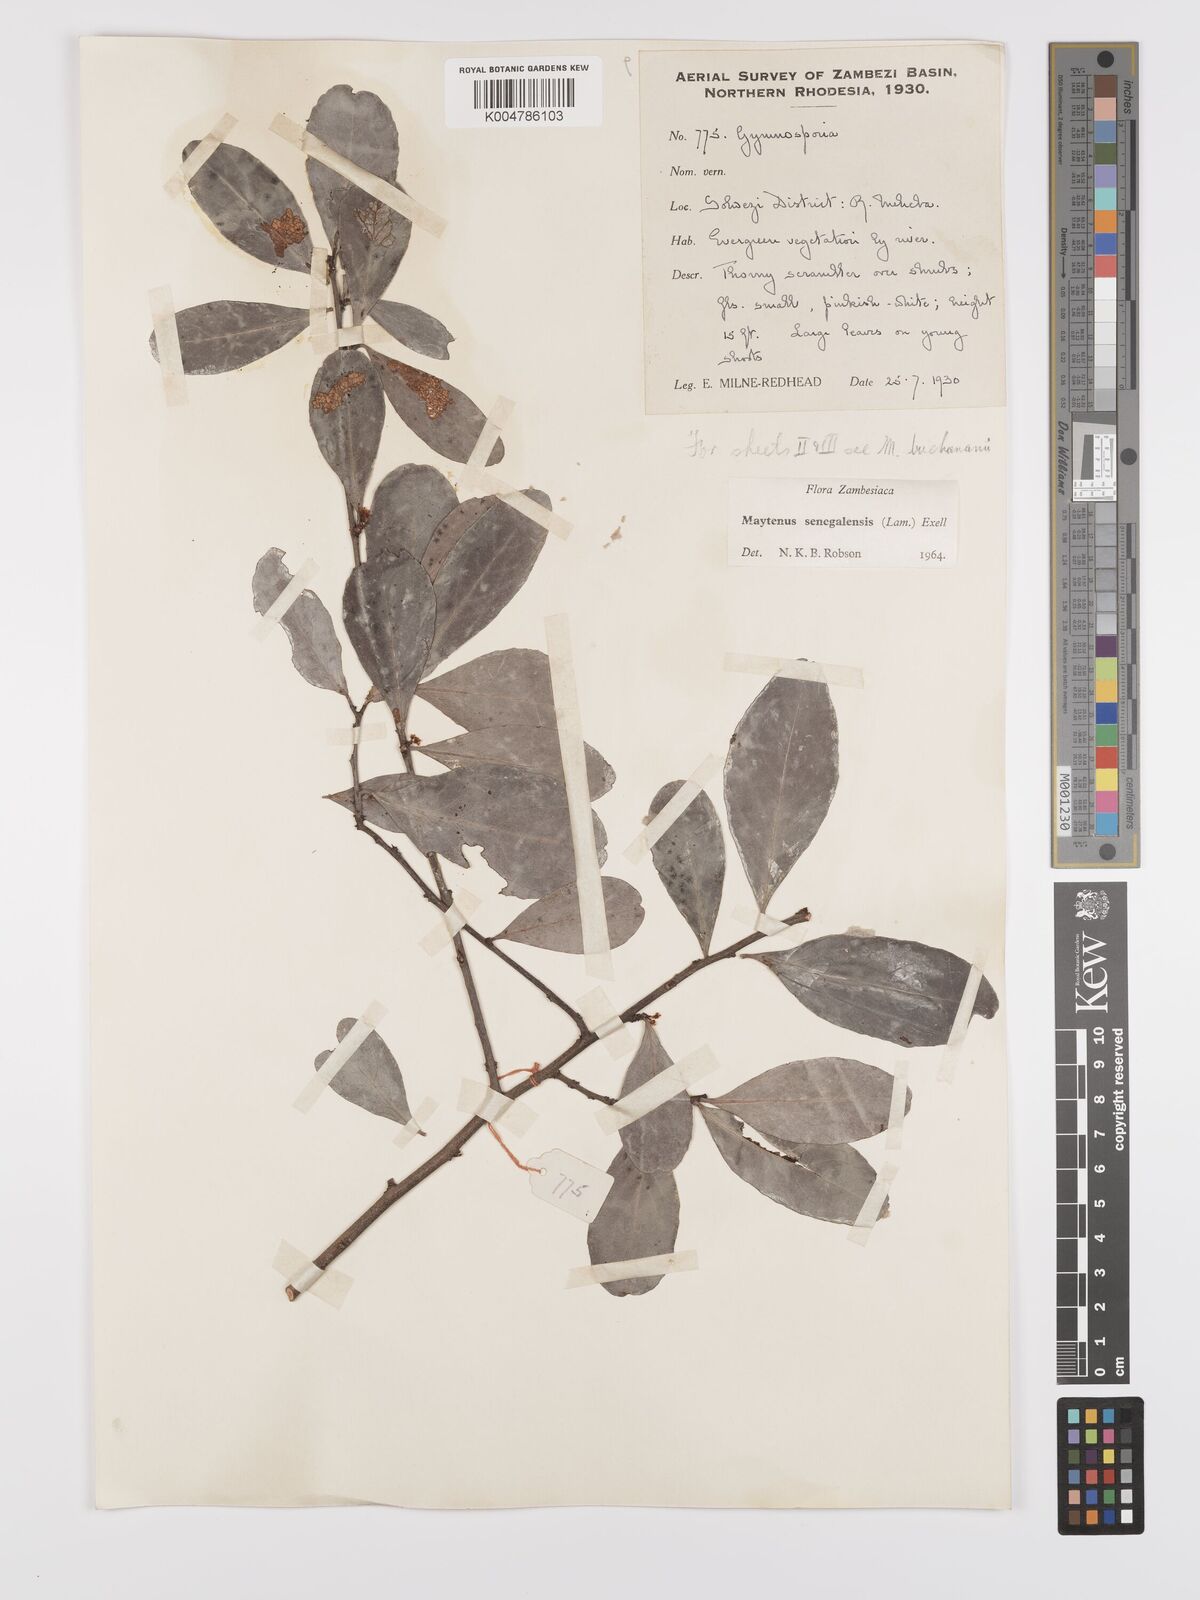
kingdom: Plantae
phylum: Tracheophyta
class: Magnoliopsida
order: Celastrales
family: Celastraceae
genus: Gymnosporia
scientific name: Gymnosporia senegalensis
